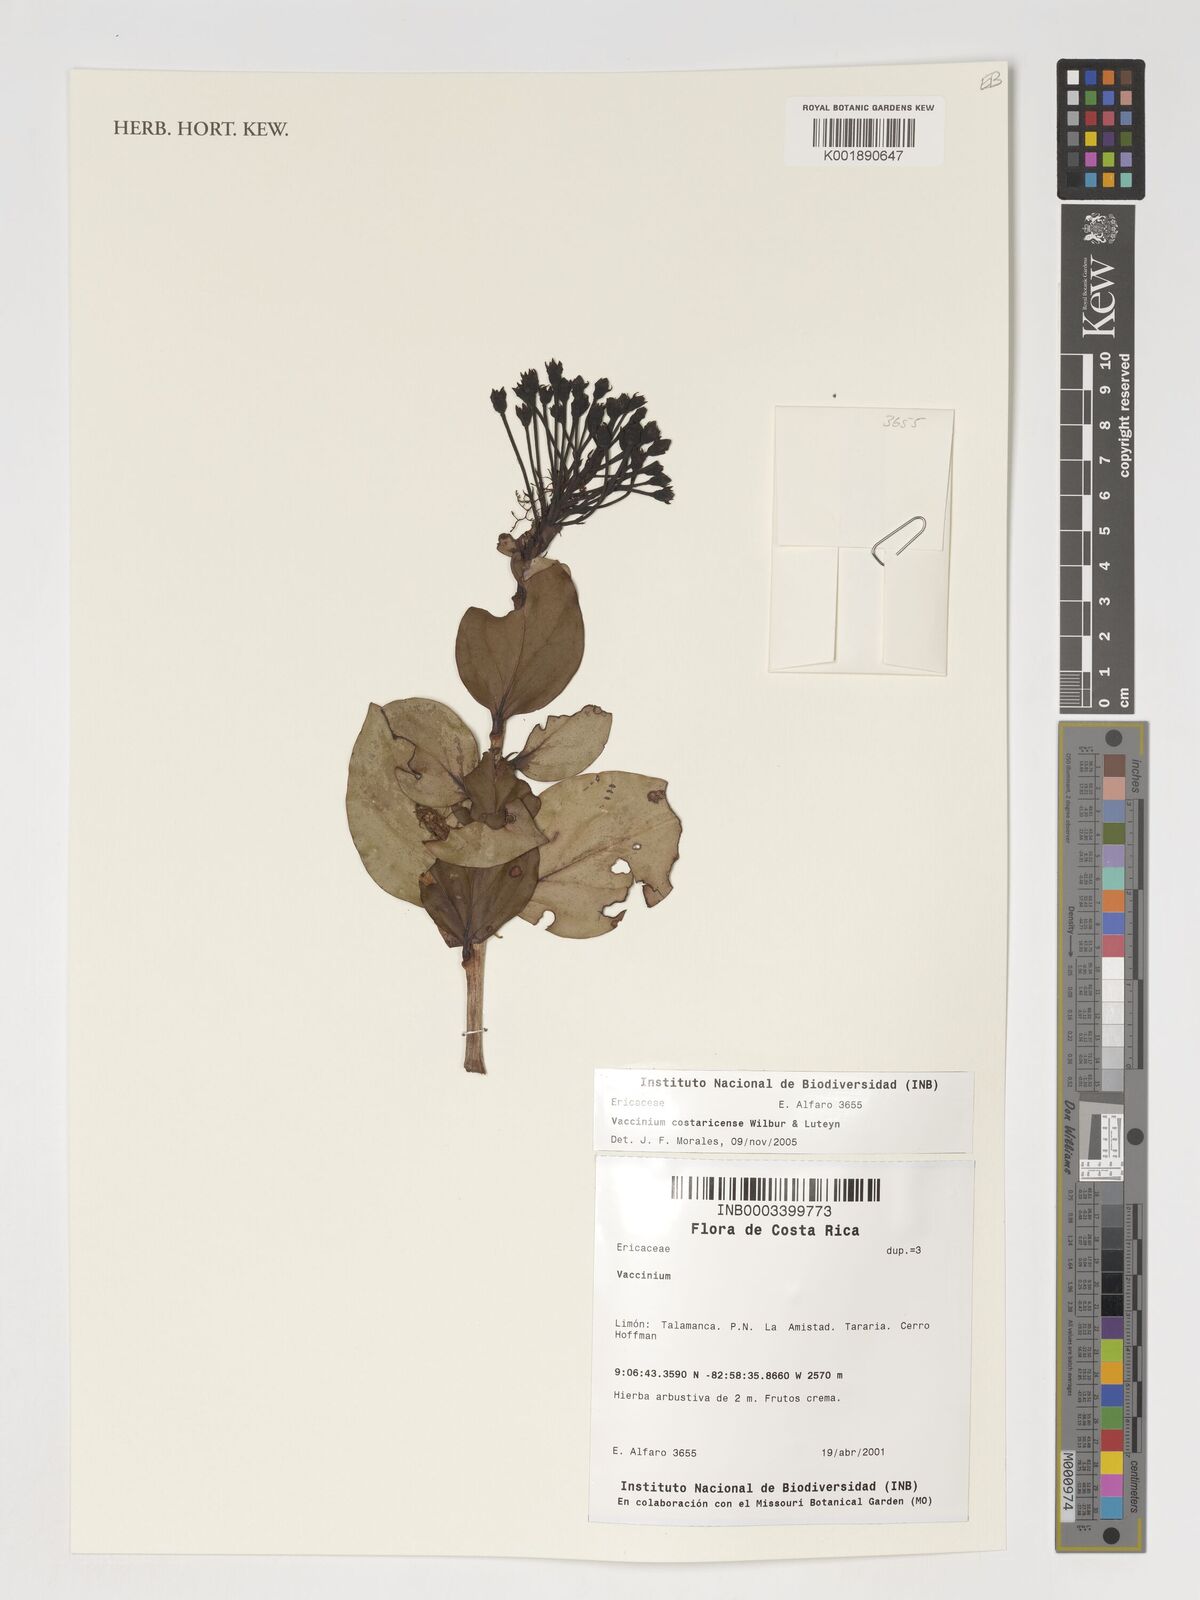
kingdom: Plantae
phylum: Tracheophyta
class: Magnoliopsida
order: Ericales
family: Ericaceae
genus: Vaccinium
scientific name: Vaccinium
